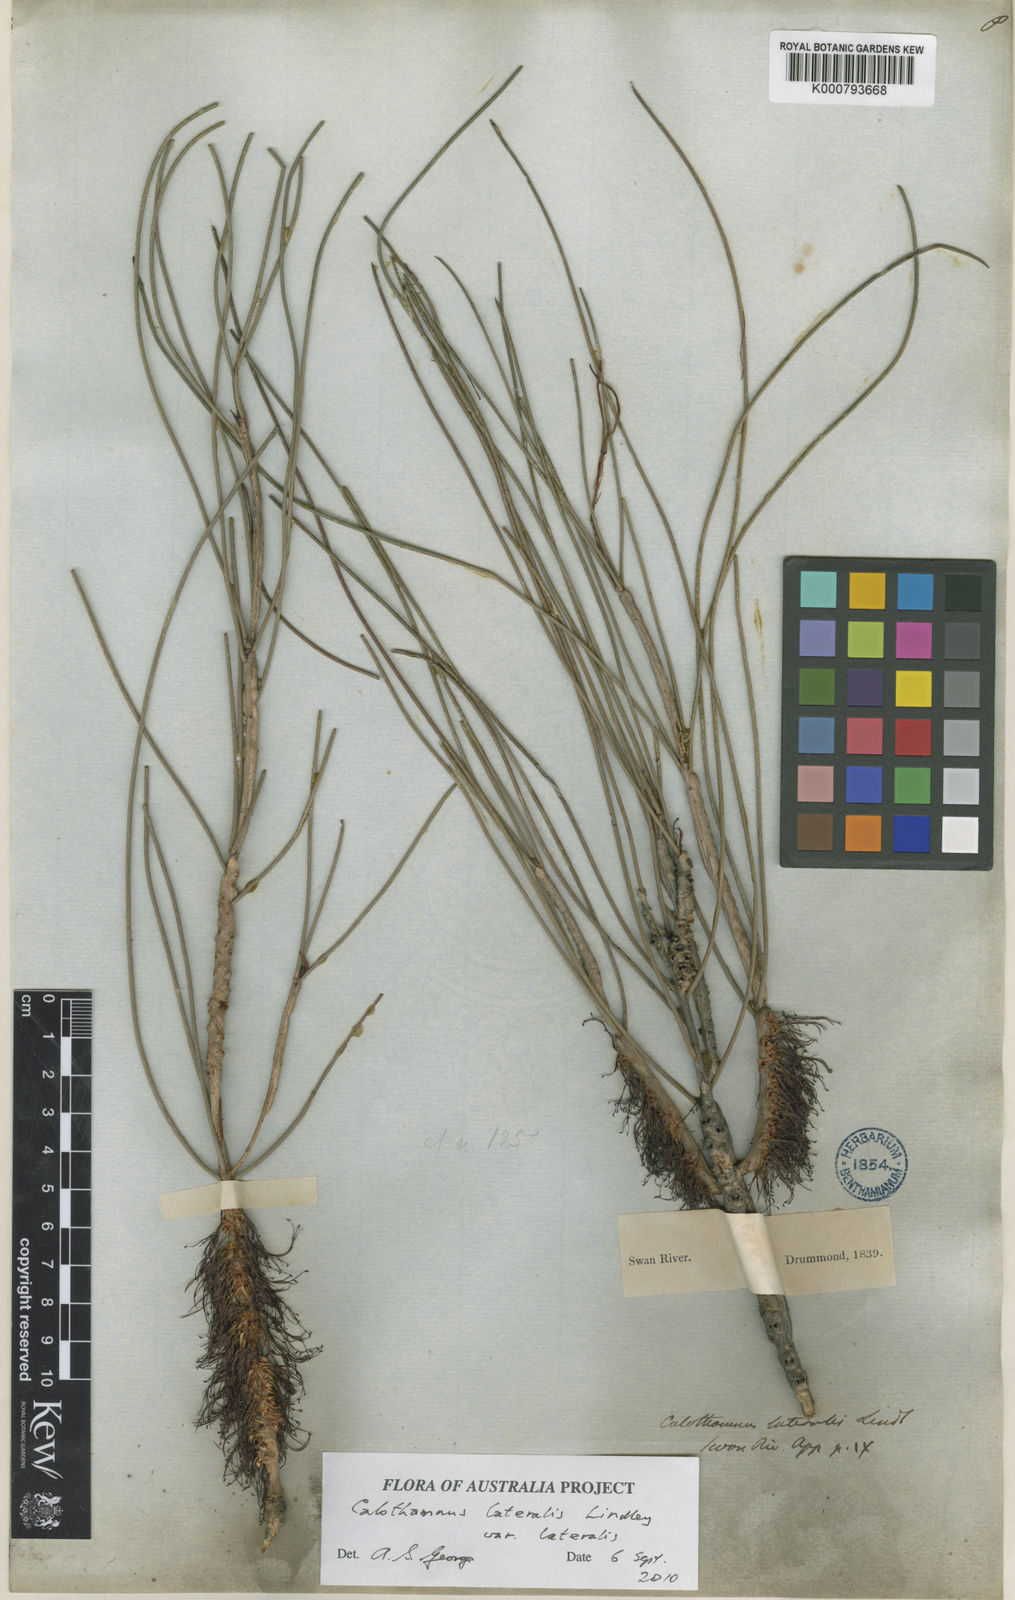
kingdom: Plantae
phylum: Tracheophyta
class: Magnoliopsida
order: Myrtales
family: Myrtaceae
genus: Melaleuca
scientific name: Melaleuca lateralis
